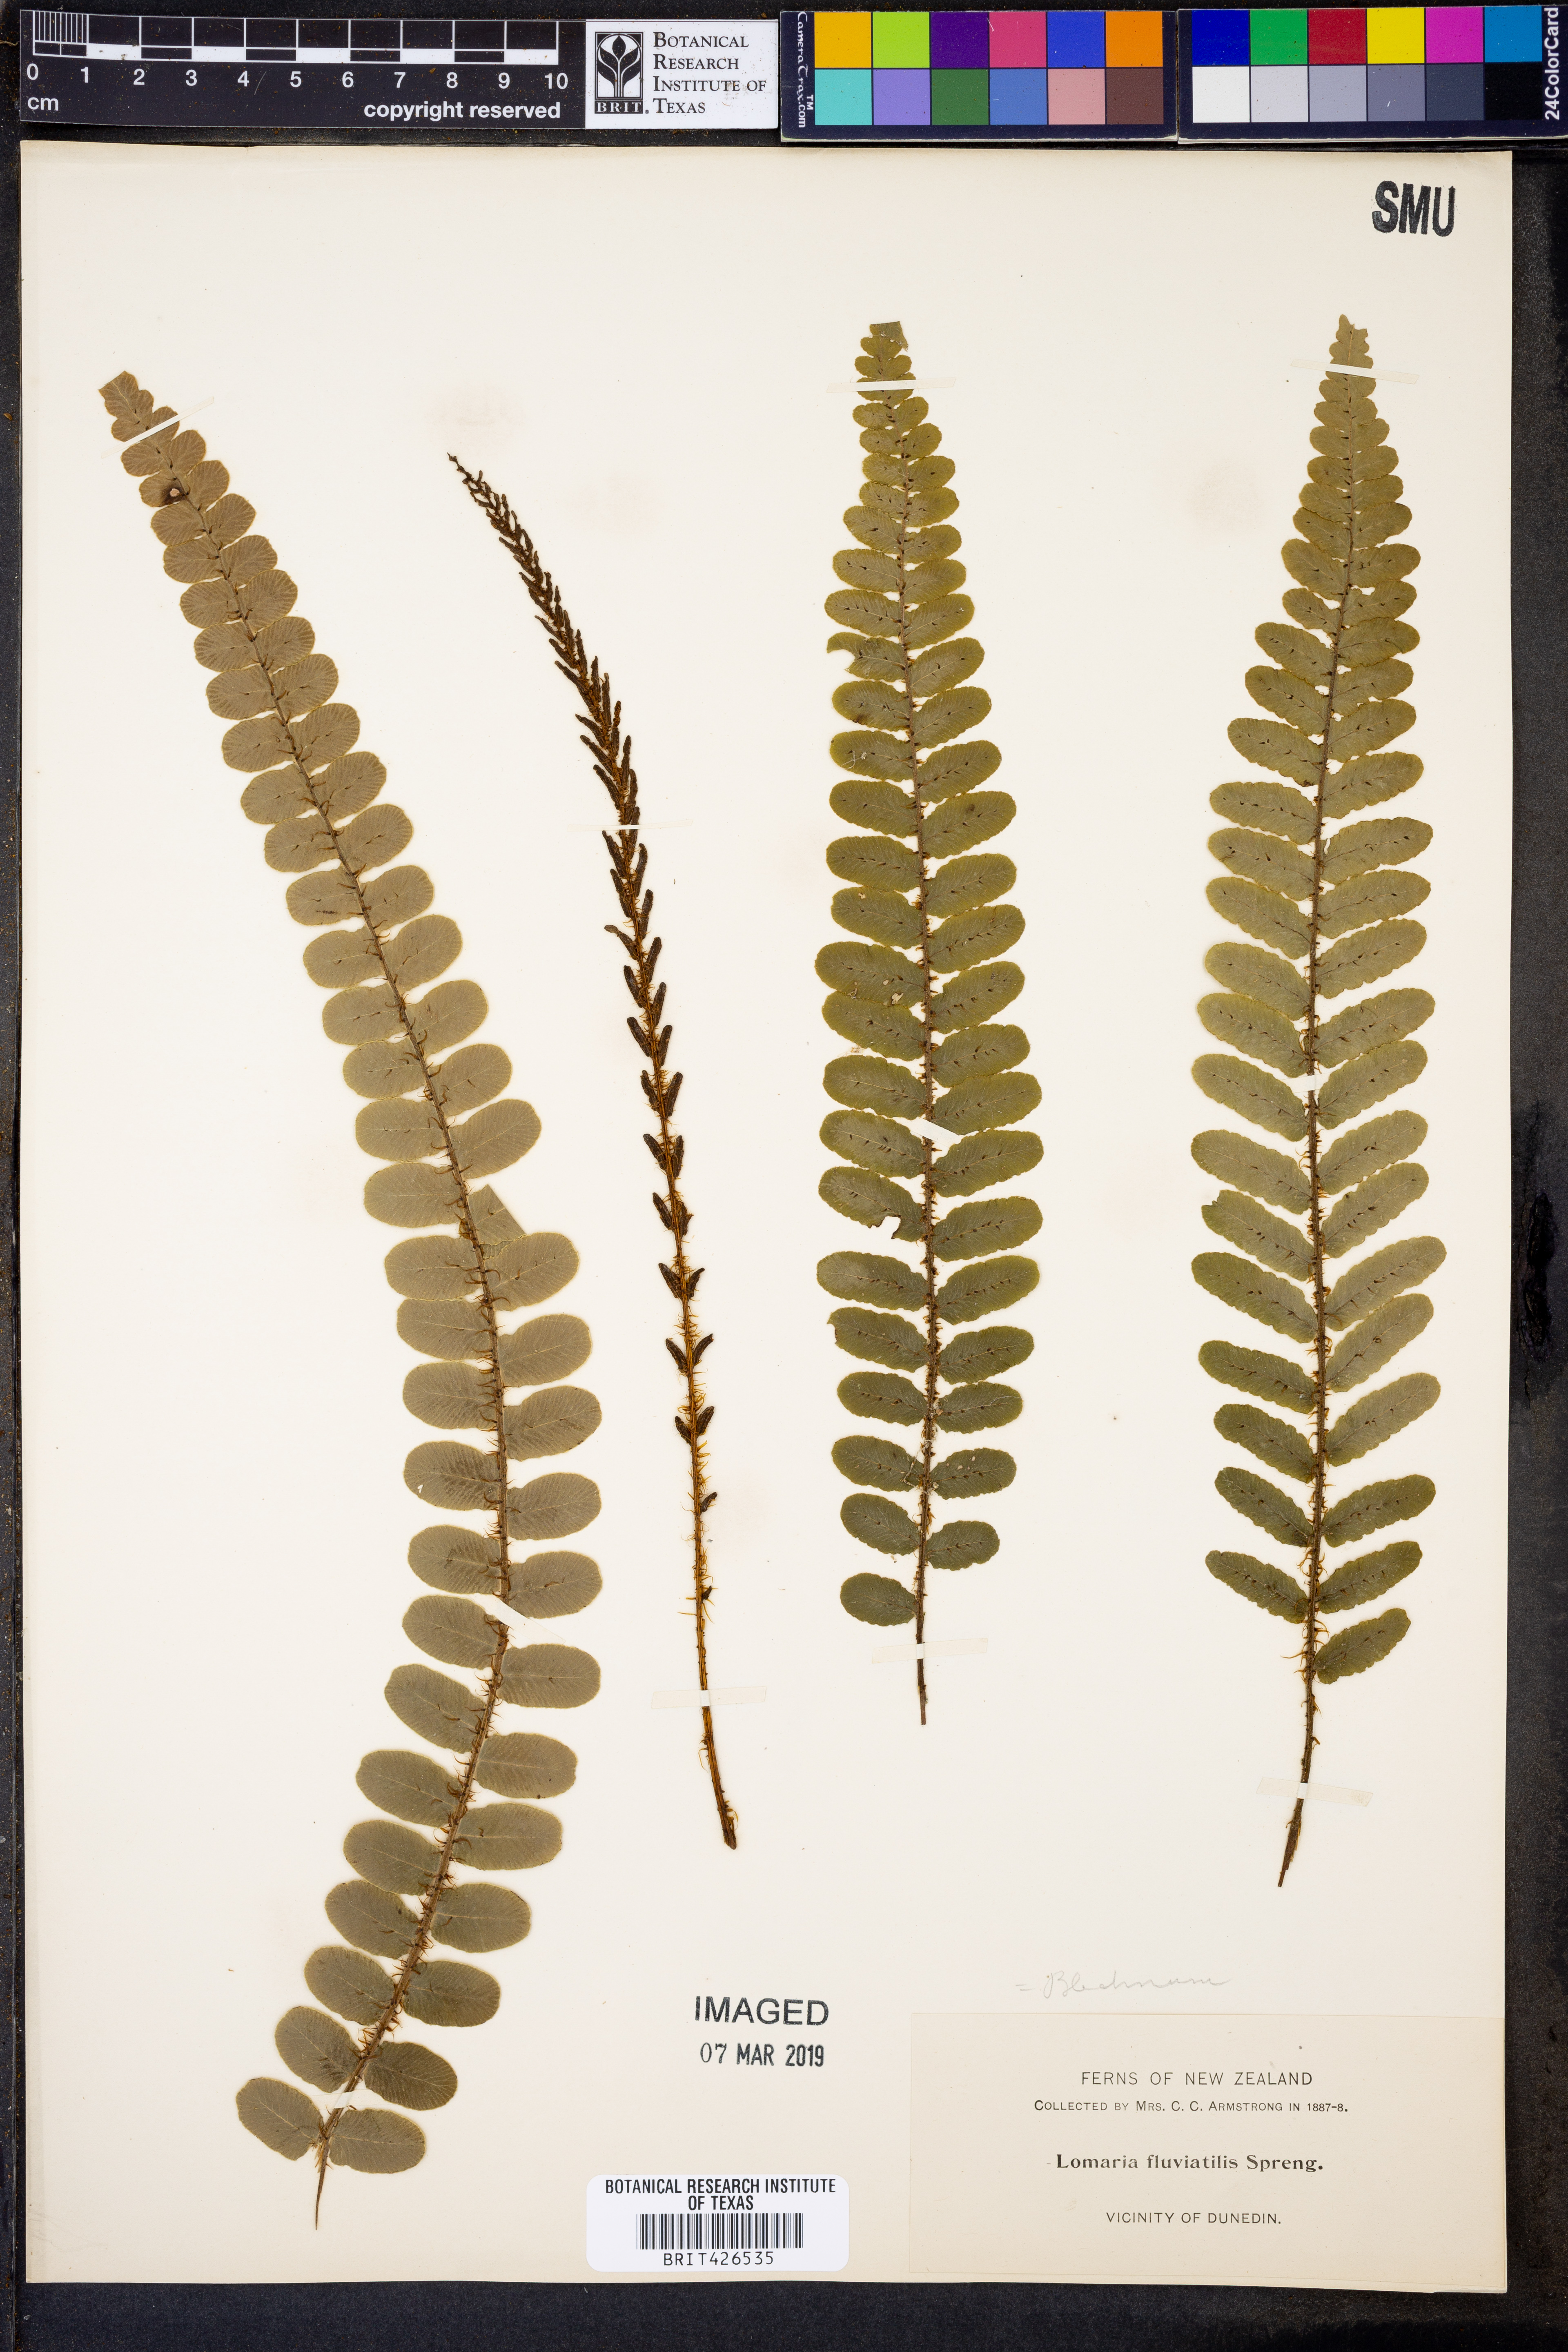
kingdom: Plantae
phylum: Tracheophyta
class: Polypodiopsida
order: Polypodiales
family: Blechnaceae
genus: Cranfillia
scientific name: Cranfillia fluviatilis
